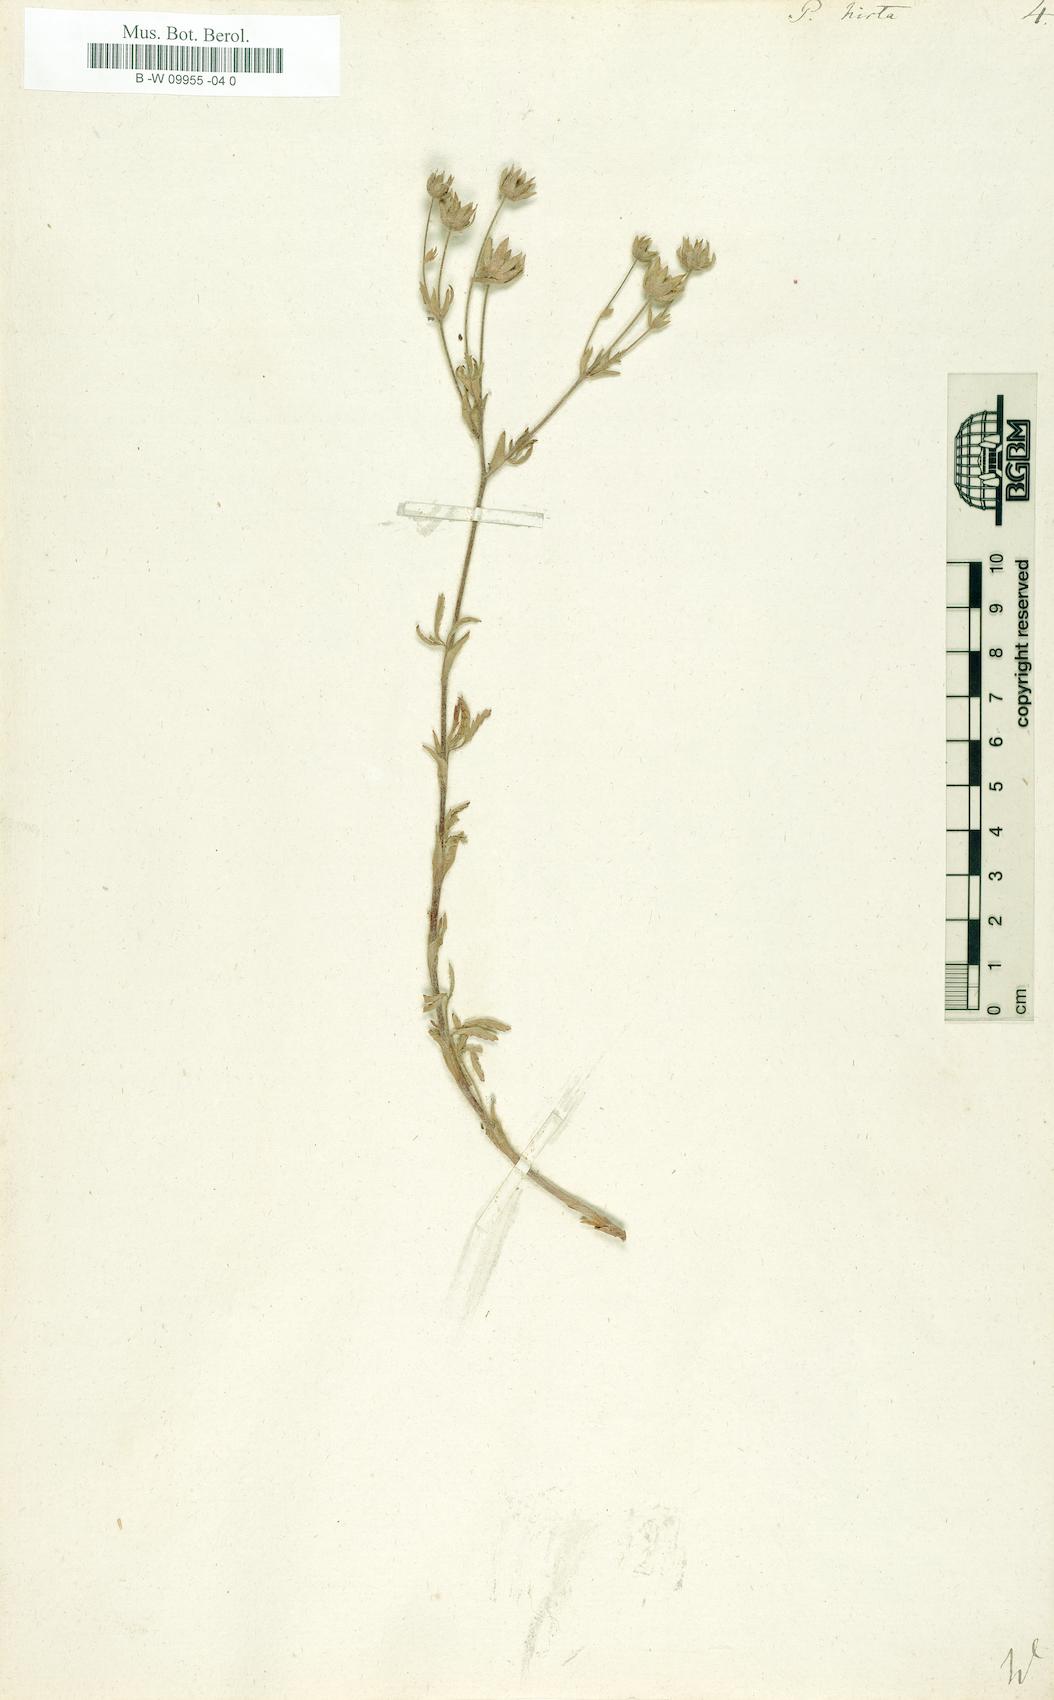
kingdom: Plantae
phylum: Tracheophyta
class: Magnoliopsida
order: Rosales
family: Rosaceae
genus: Potentilla
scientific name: Potentilla hirta
